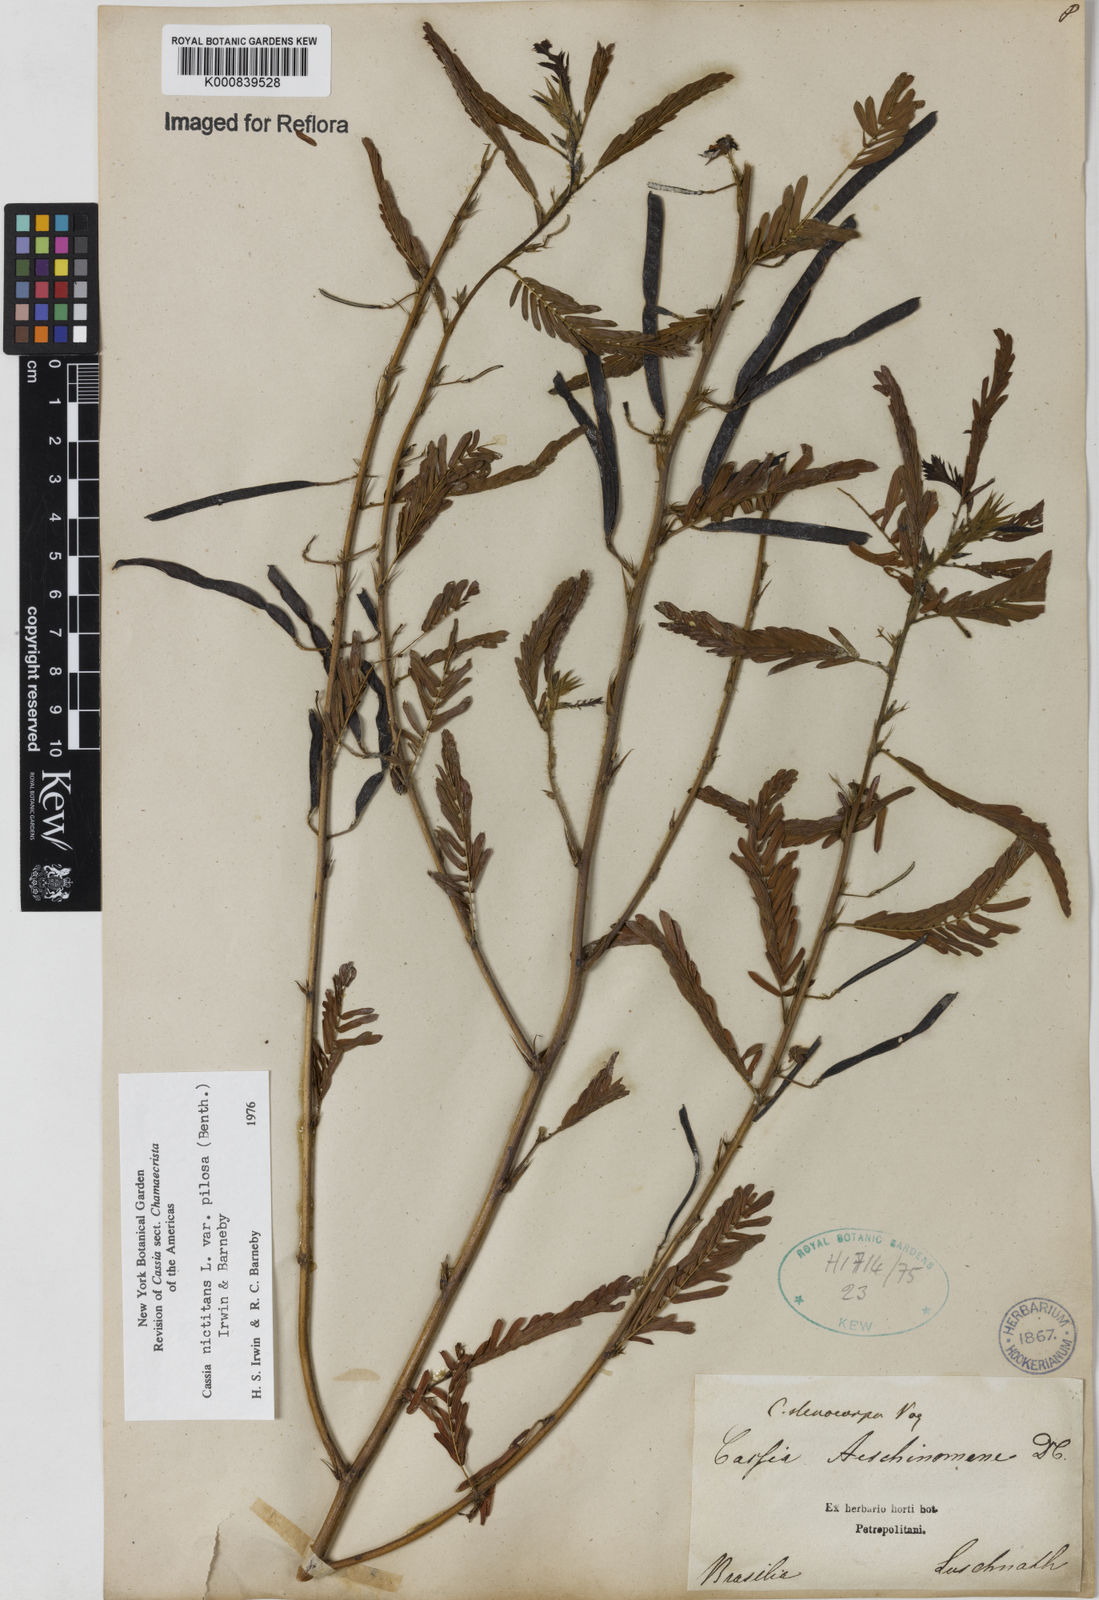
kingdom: Plantae
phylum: Tracheophyta
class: Magnoliopsida
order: Fabales
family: Fabaceae
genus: Chamaecrista
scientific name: Chamaecrista nictitans
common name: Sensitive cassia
